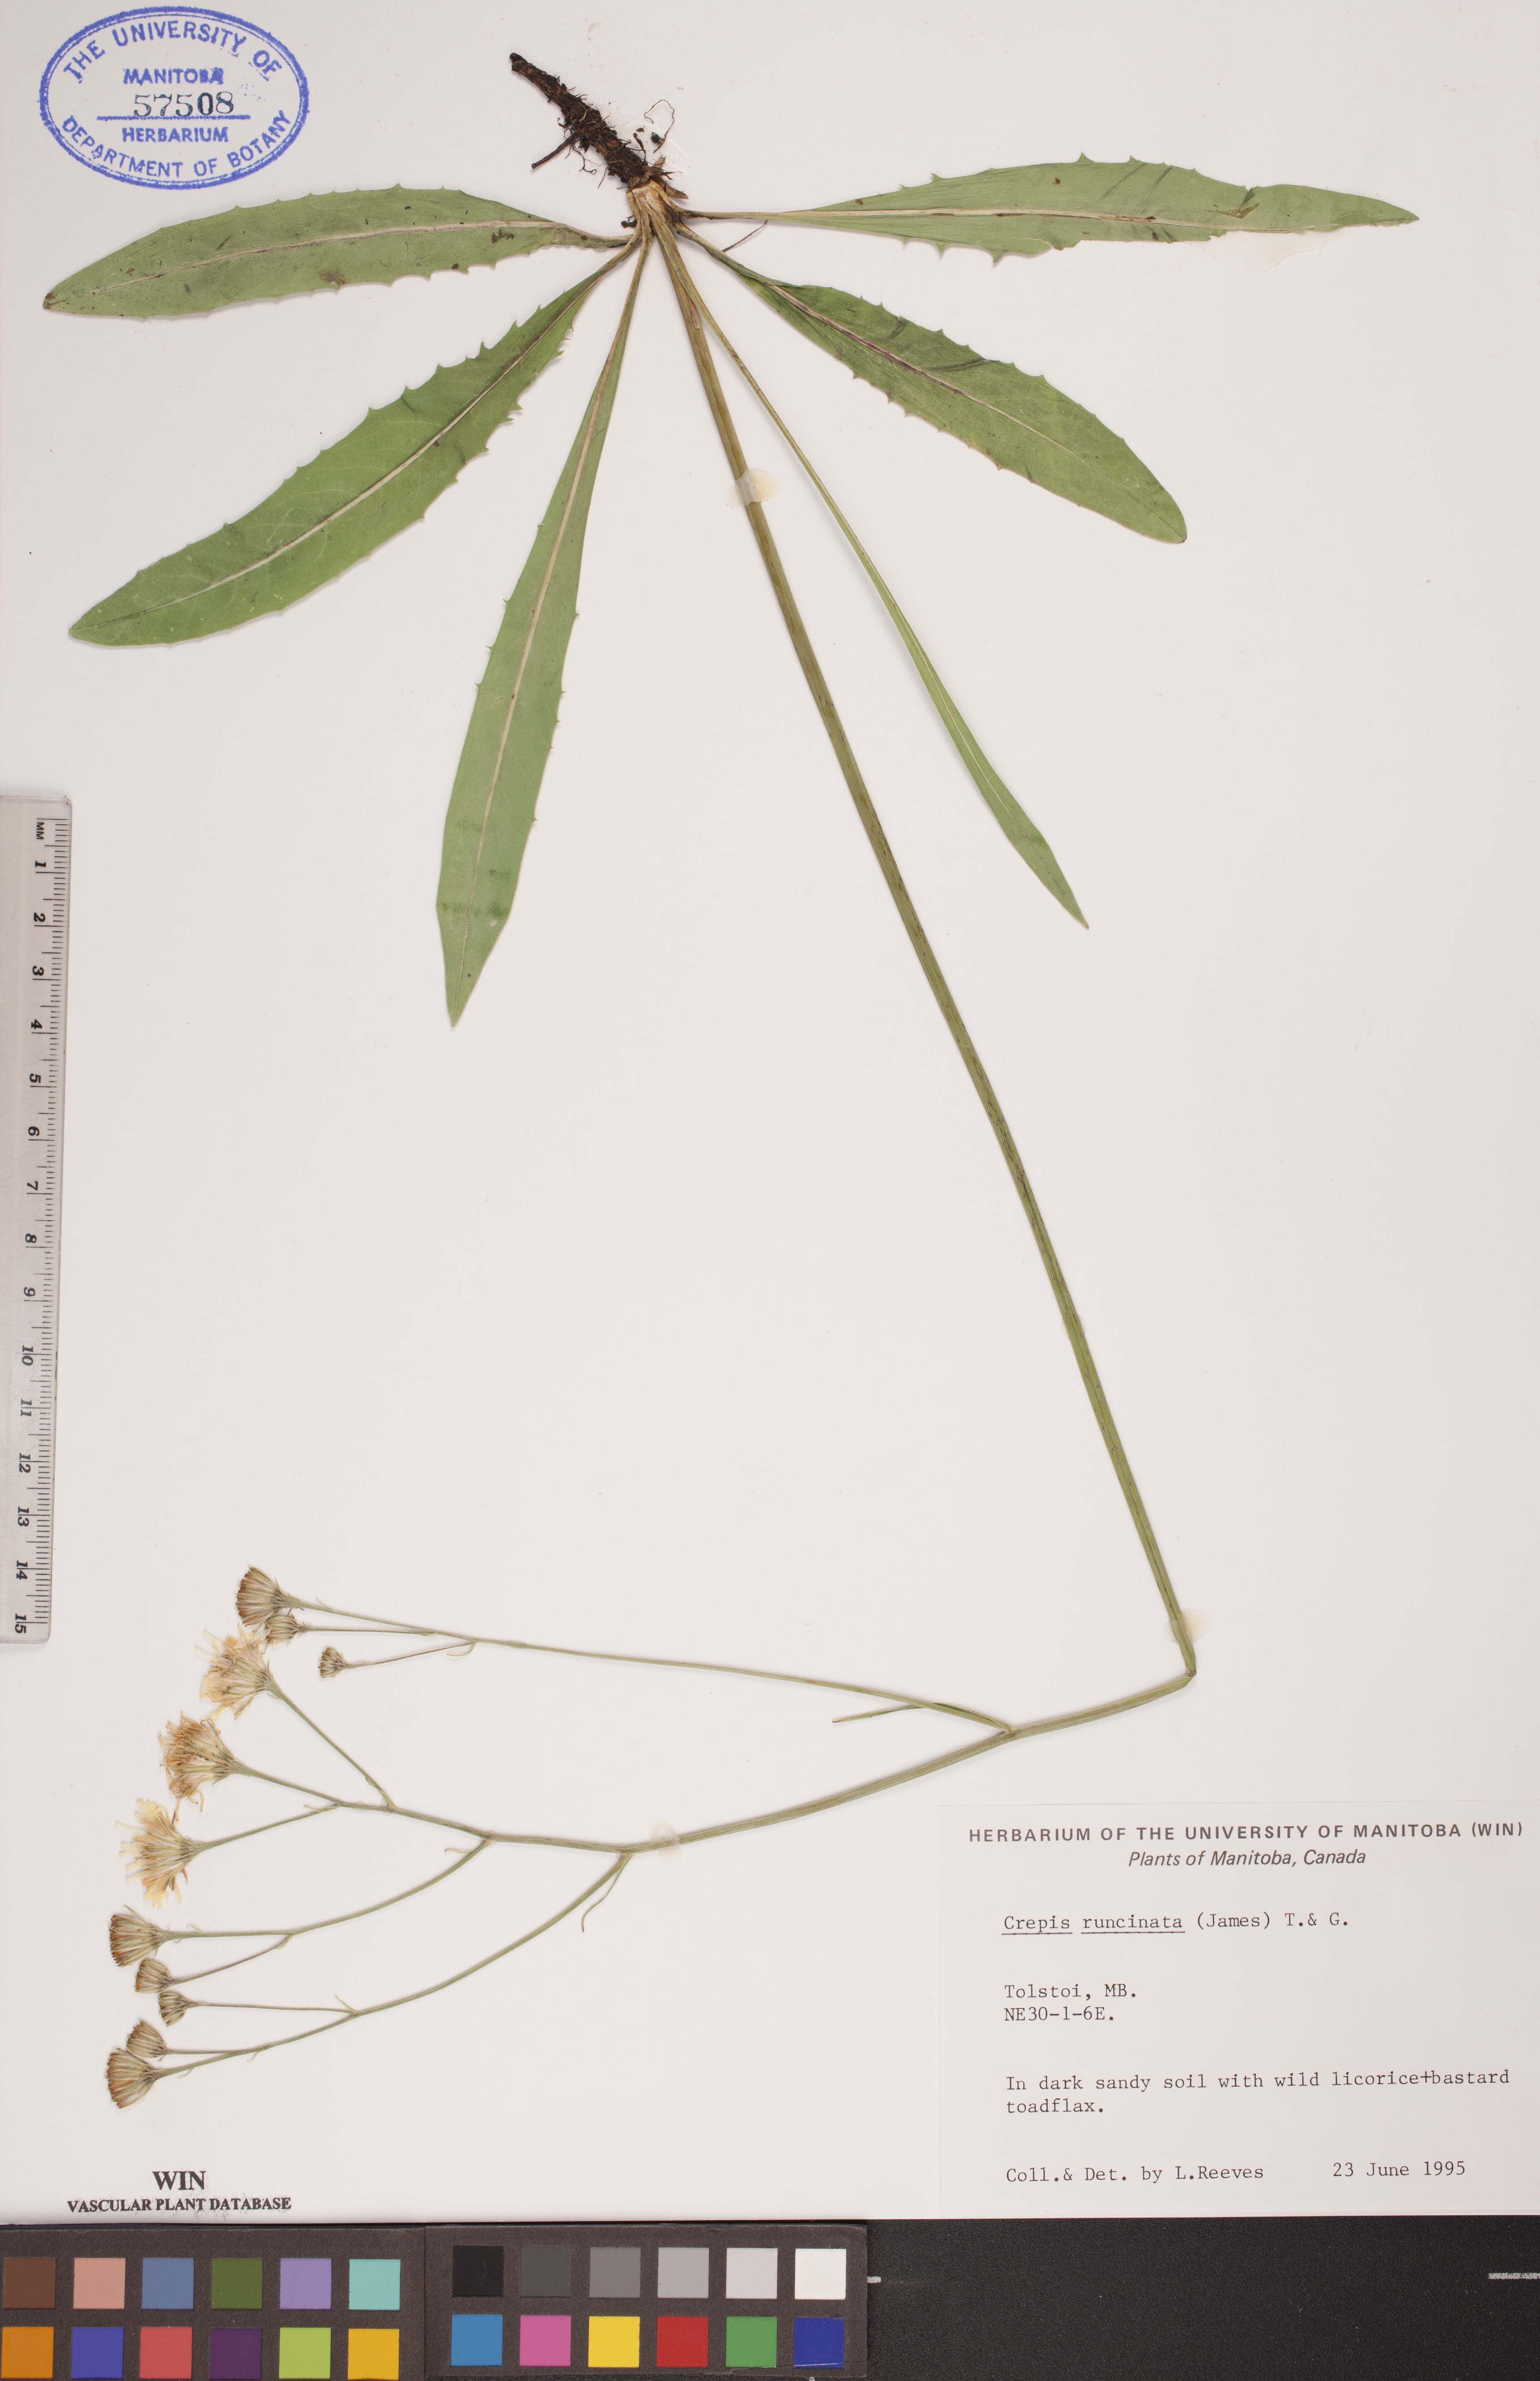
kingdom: Plantae
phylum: Tracheophyta
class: Magnoliopsida
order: Asterales
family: Asteraceae
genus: Crepis
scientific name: Crepis runcinata
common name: Dandelion hawksbeard
